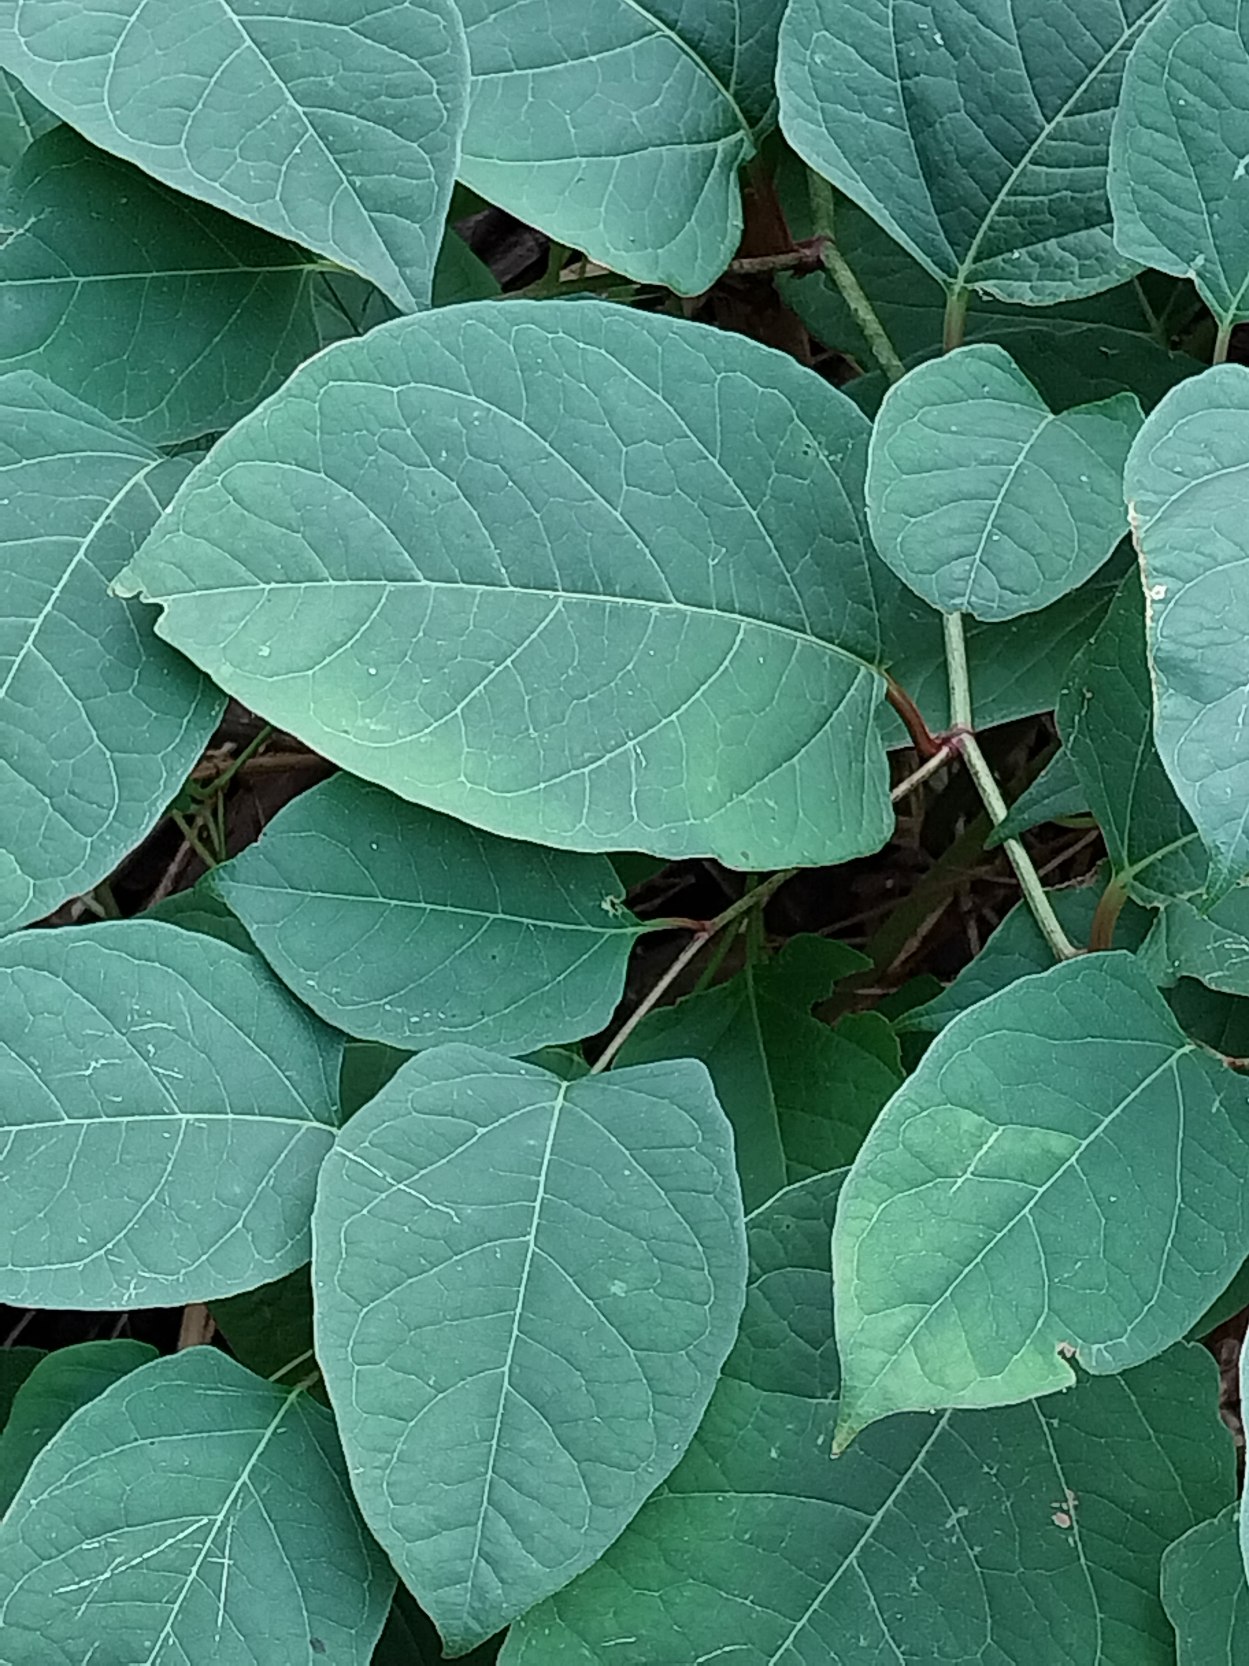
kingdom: Plantae
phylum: Tracheophyta
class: Magnoliopsida
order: Caryophyllales
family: Polygonaceae
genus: Reynoutria
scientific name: Reynoutria japonica
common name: Japan-pileurt
